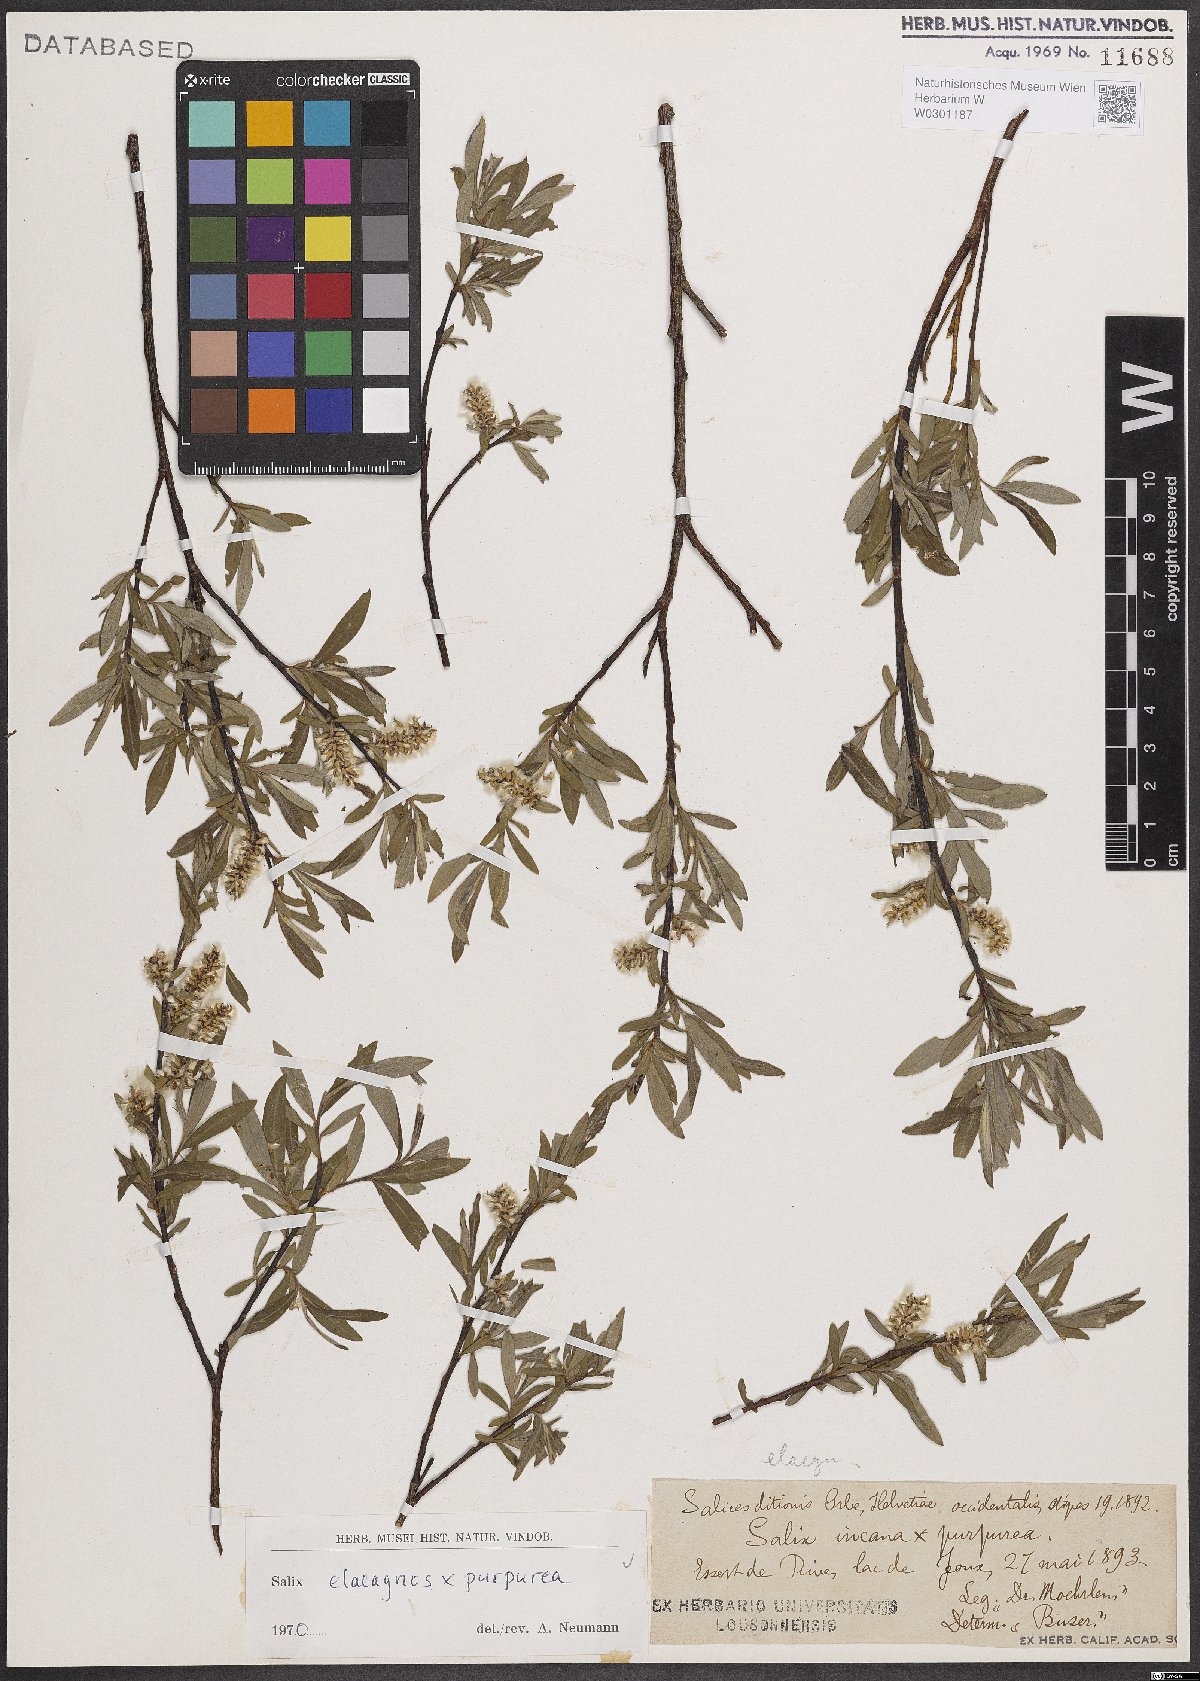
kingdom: Plantae
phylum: Tracheophyta
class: Magnoliopsida
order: Malpighiales
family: Salicaceae
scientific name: Salicaceae
